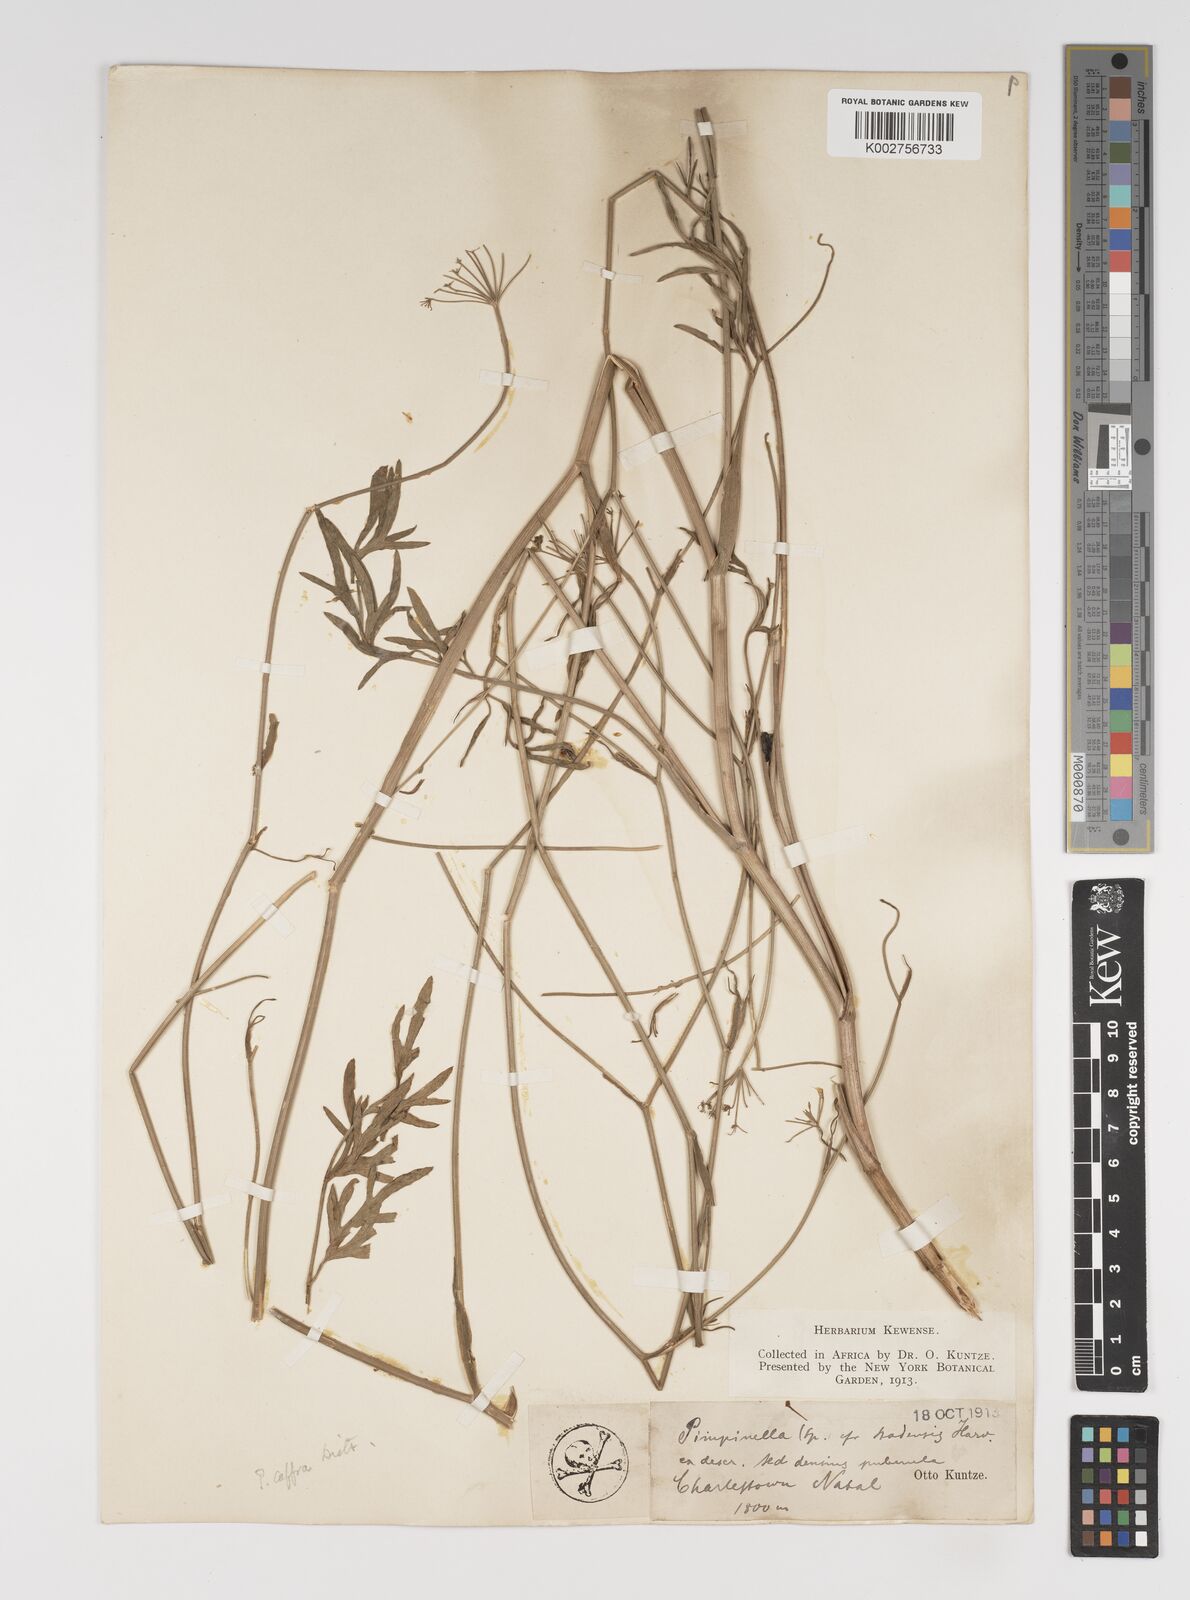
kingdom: Plantae
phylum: Tracheophyta
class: Magnoliopsida
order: Apiales
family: Apiaceae
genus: Pimpinella
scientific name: Pimpinella caffra
